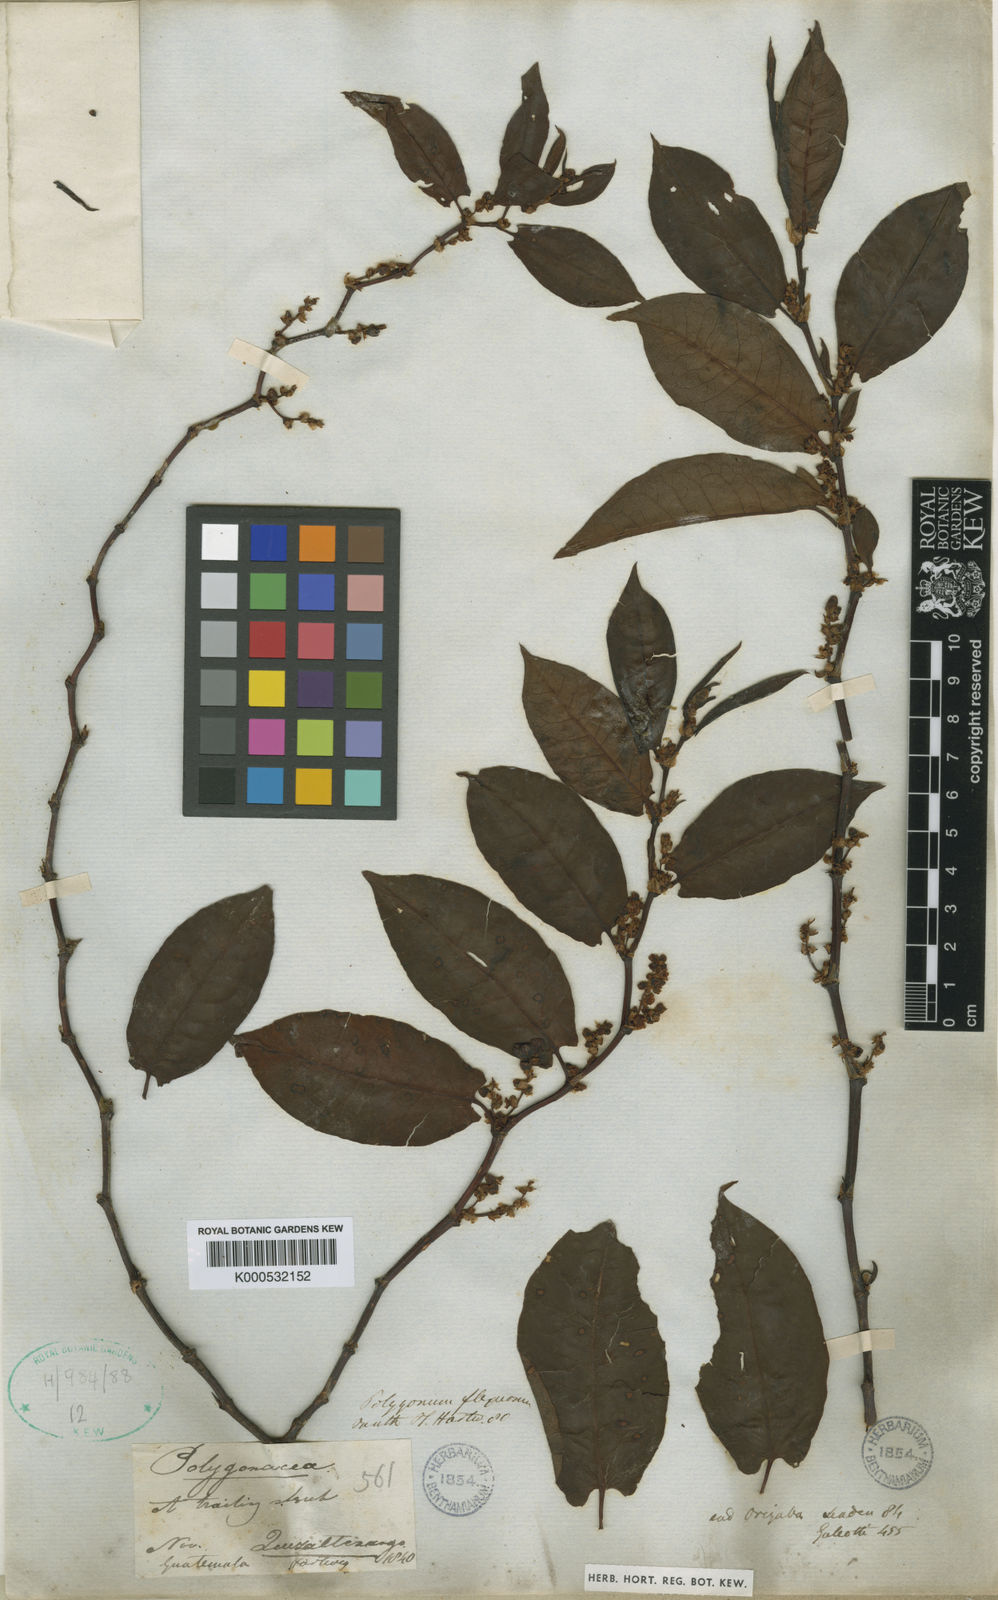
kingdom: Plantae
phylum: Tracheophyta
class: Magnoliopsida
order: Caryophyllales
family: Polygonaceae
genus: Muehlenbeckia
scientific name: Muehlenbeckia tamnifolia
